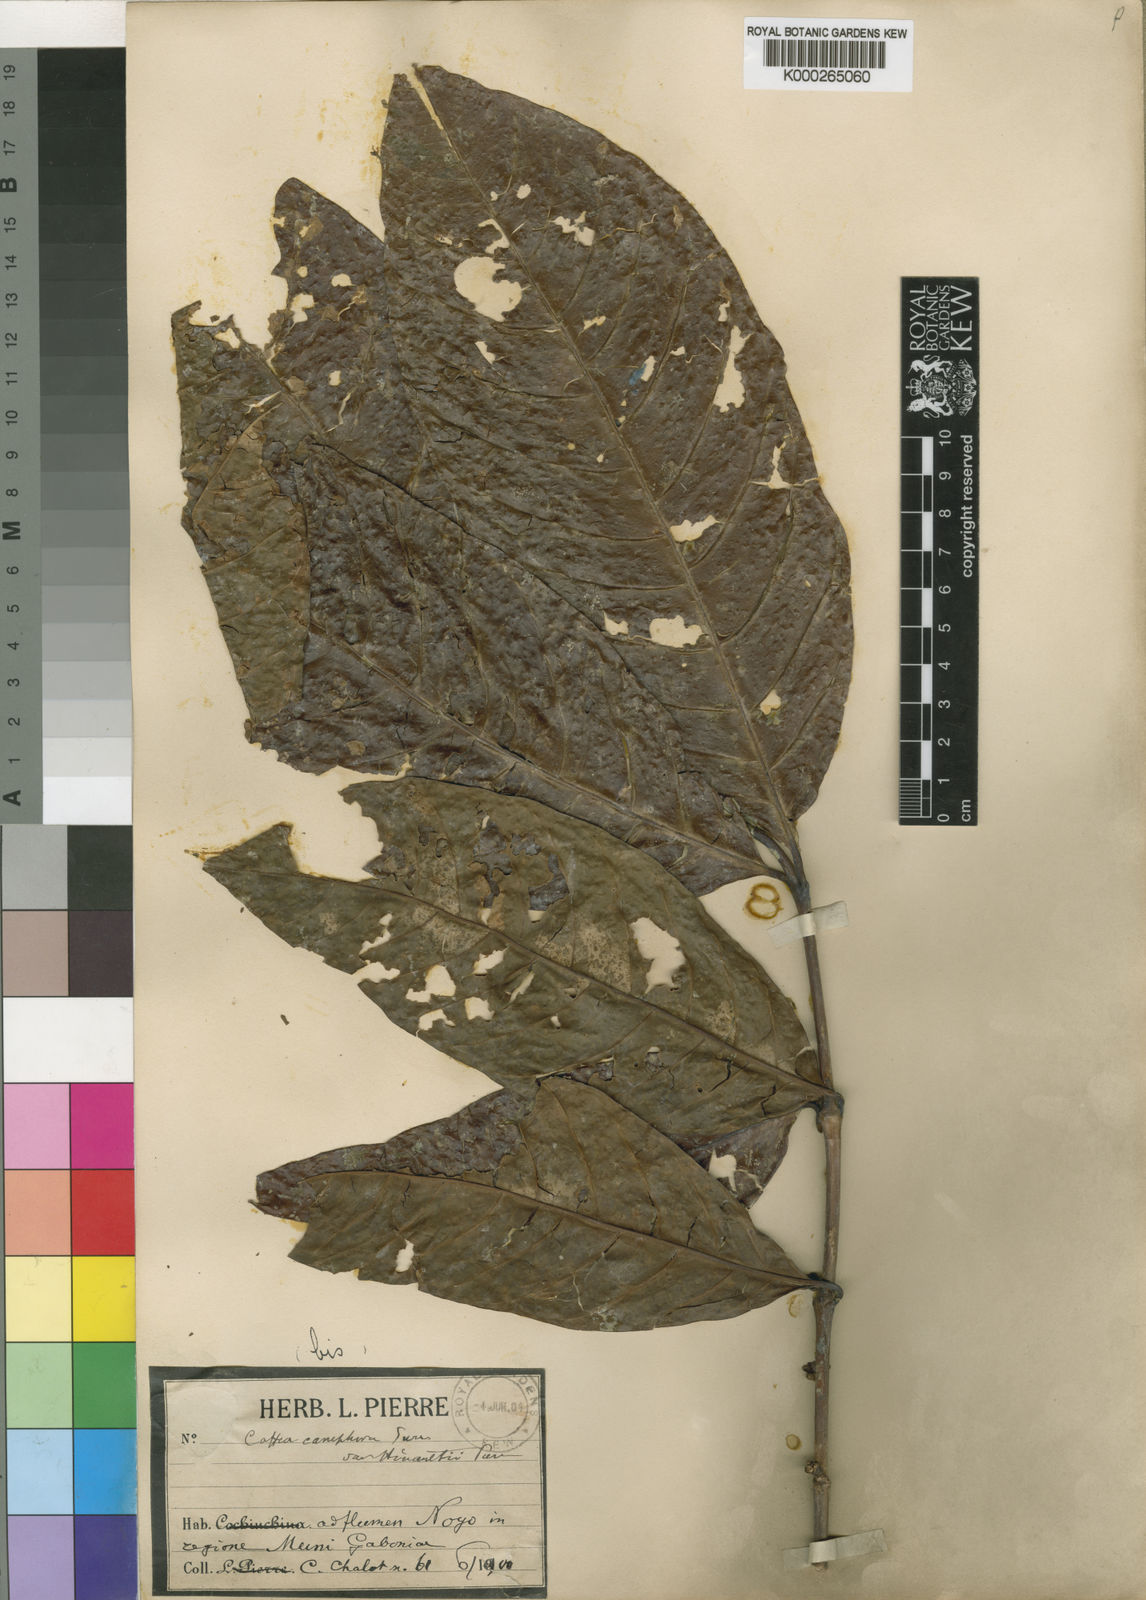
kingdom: Plantae
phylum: Tracheophyta
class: Magnoliopsida
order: Gentianales
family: Rubiaceae
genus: Coffea
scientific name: Coffea canephora
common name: Robusta coffee
